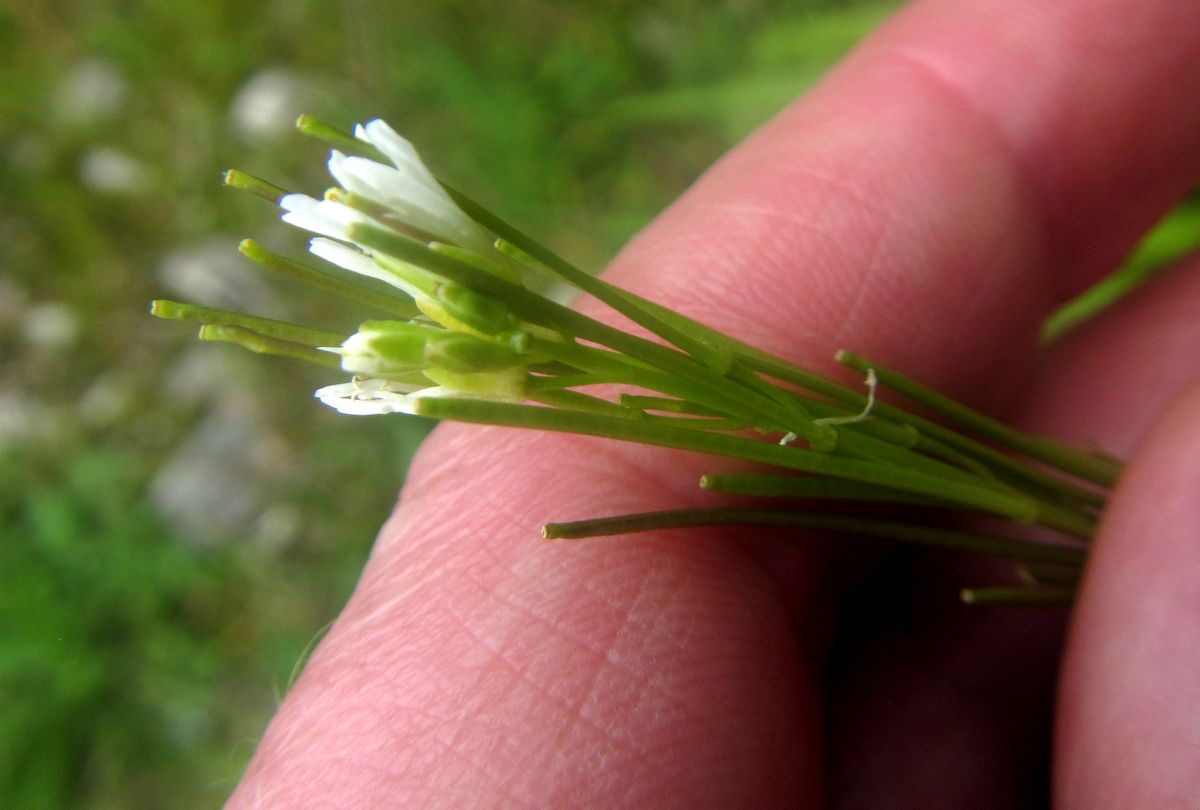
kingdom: Plantae
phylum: Tracheophyta
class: Magnoliopsida
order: Brassicales
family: Brassicaceae
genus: Arabis
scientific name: Arabis sagittata
